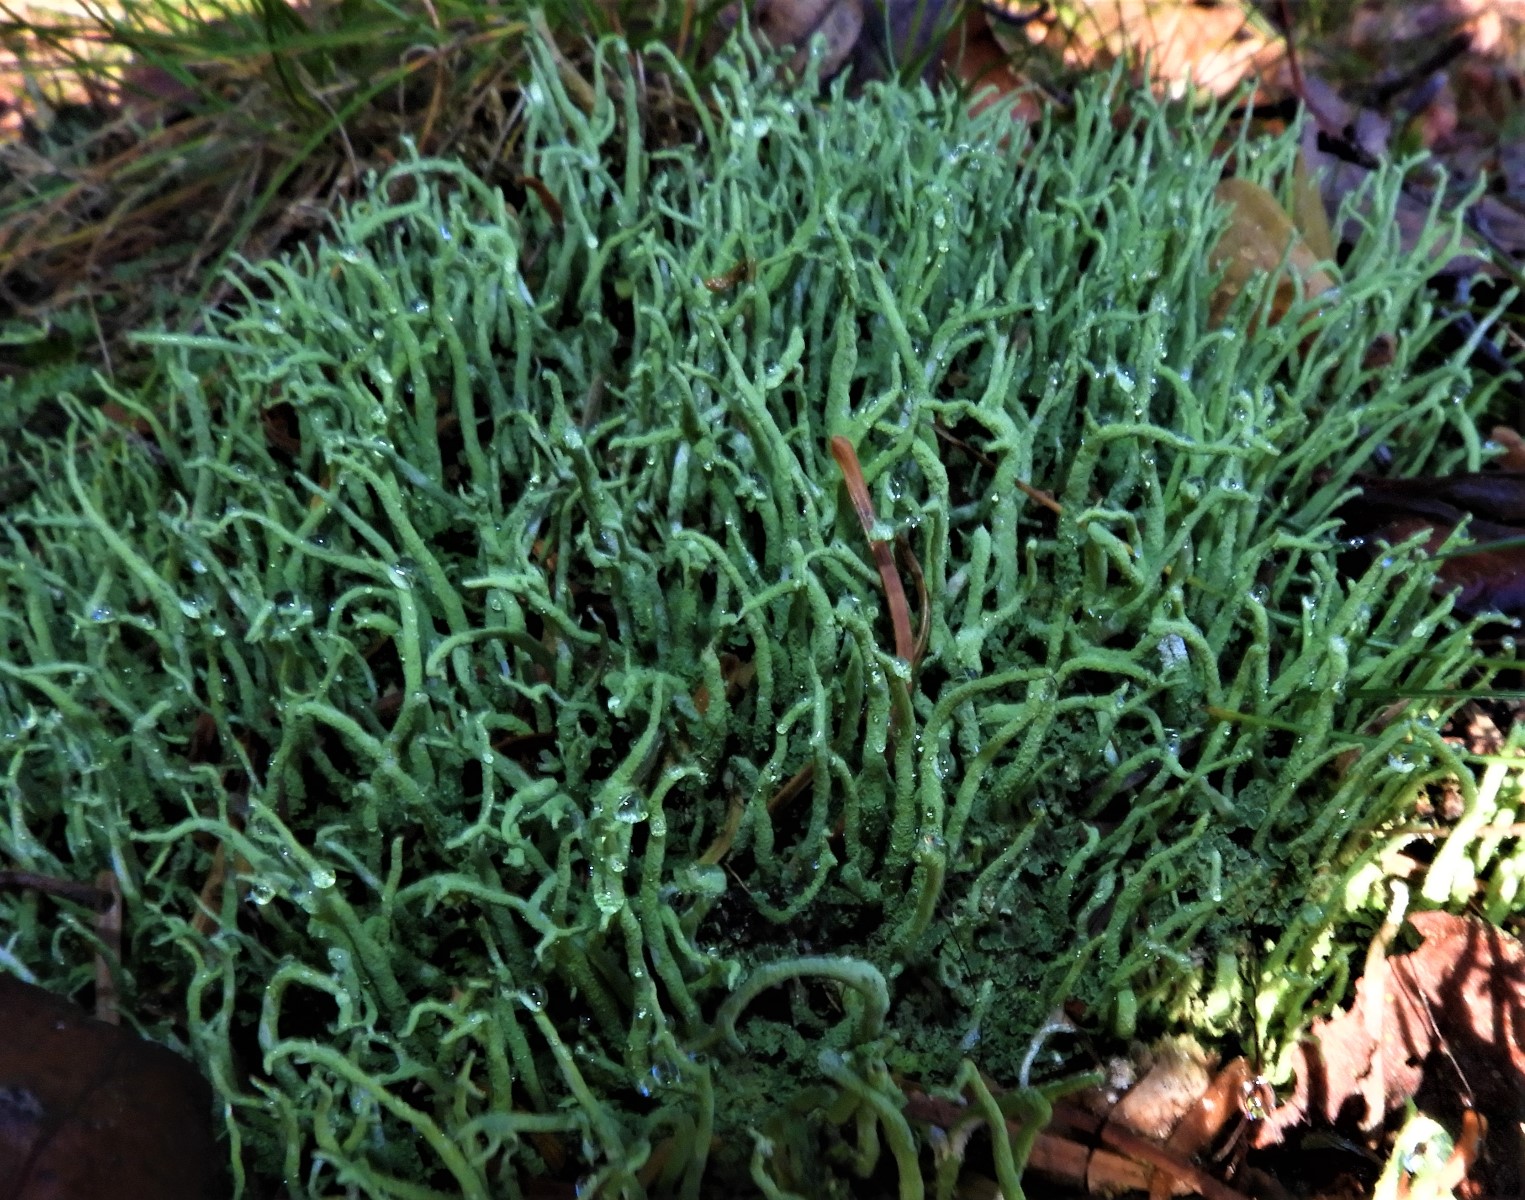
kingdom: Fungi
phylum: Ascomycota
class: Lecanoromycetes
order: Lecanorales
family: Cladoniaceae
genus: Cladonia
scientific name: Cladonia
